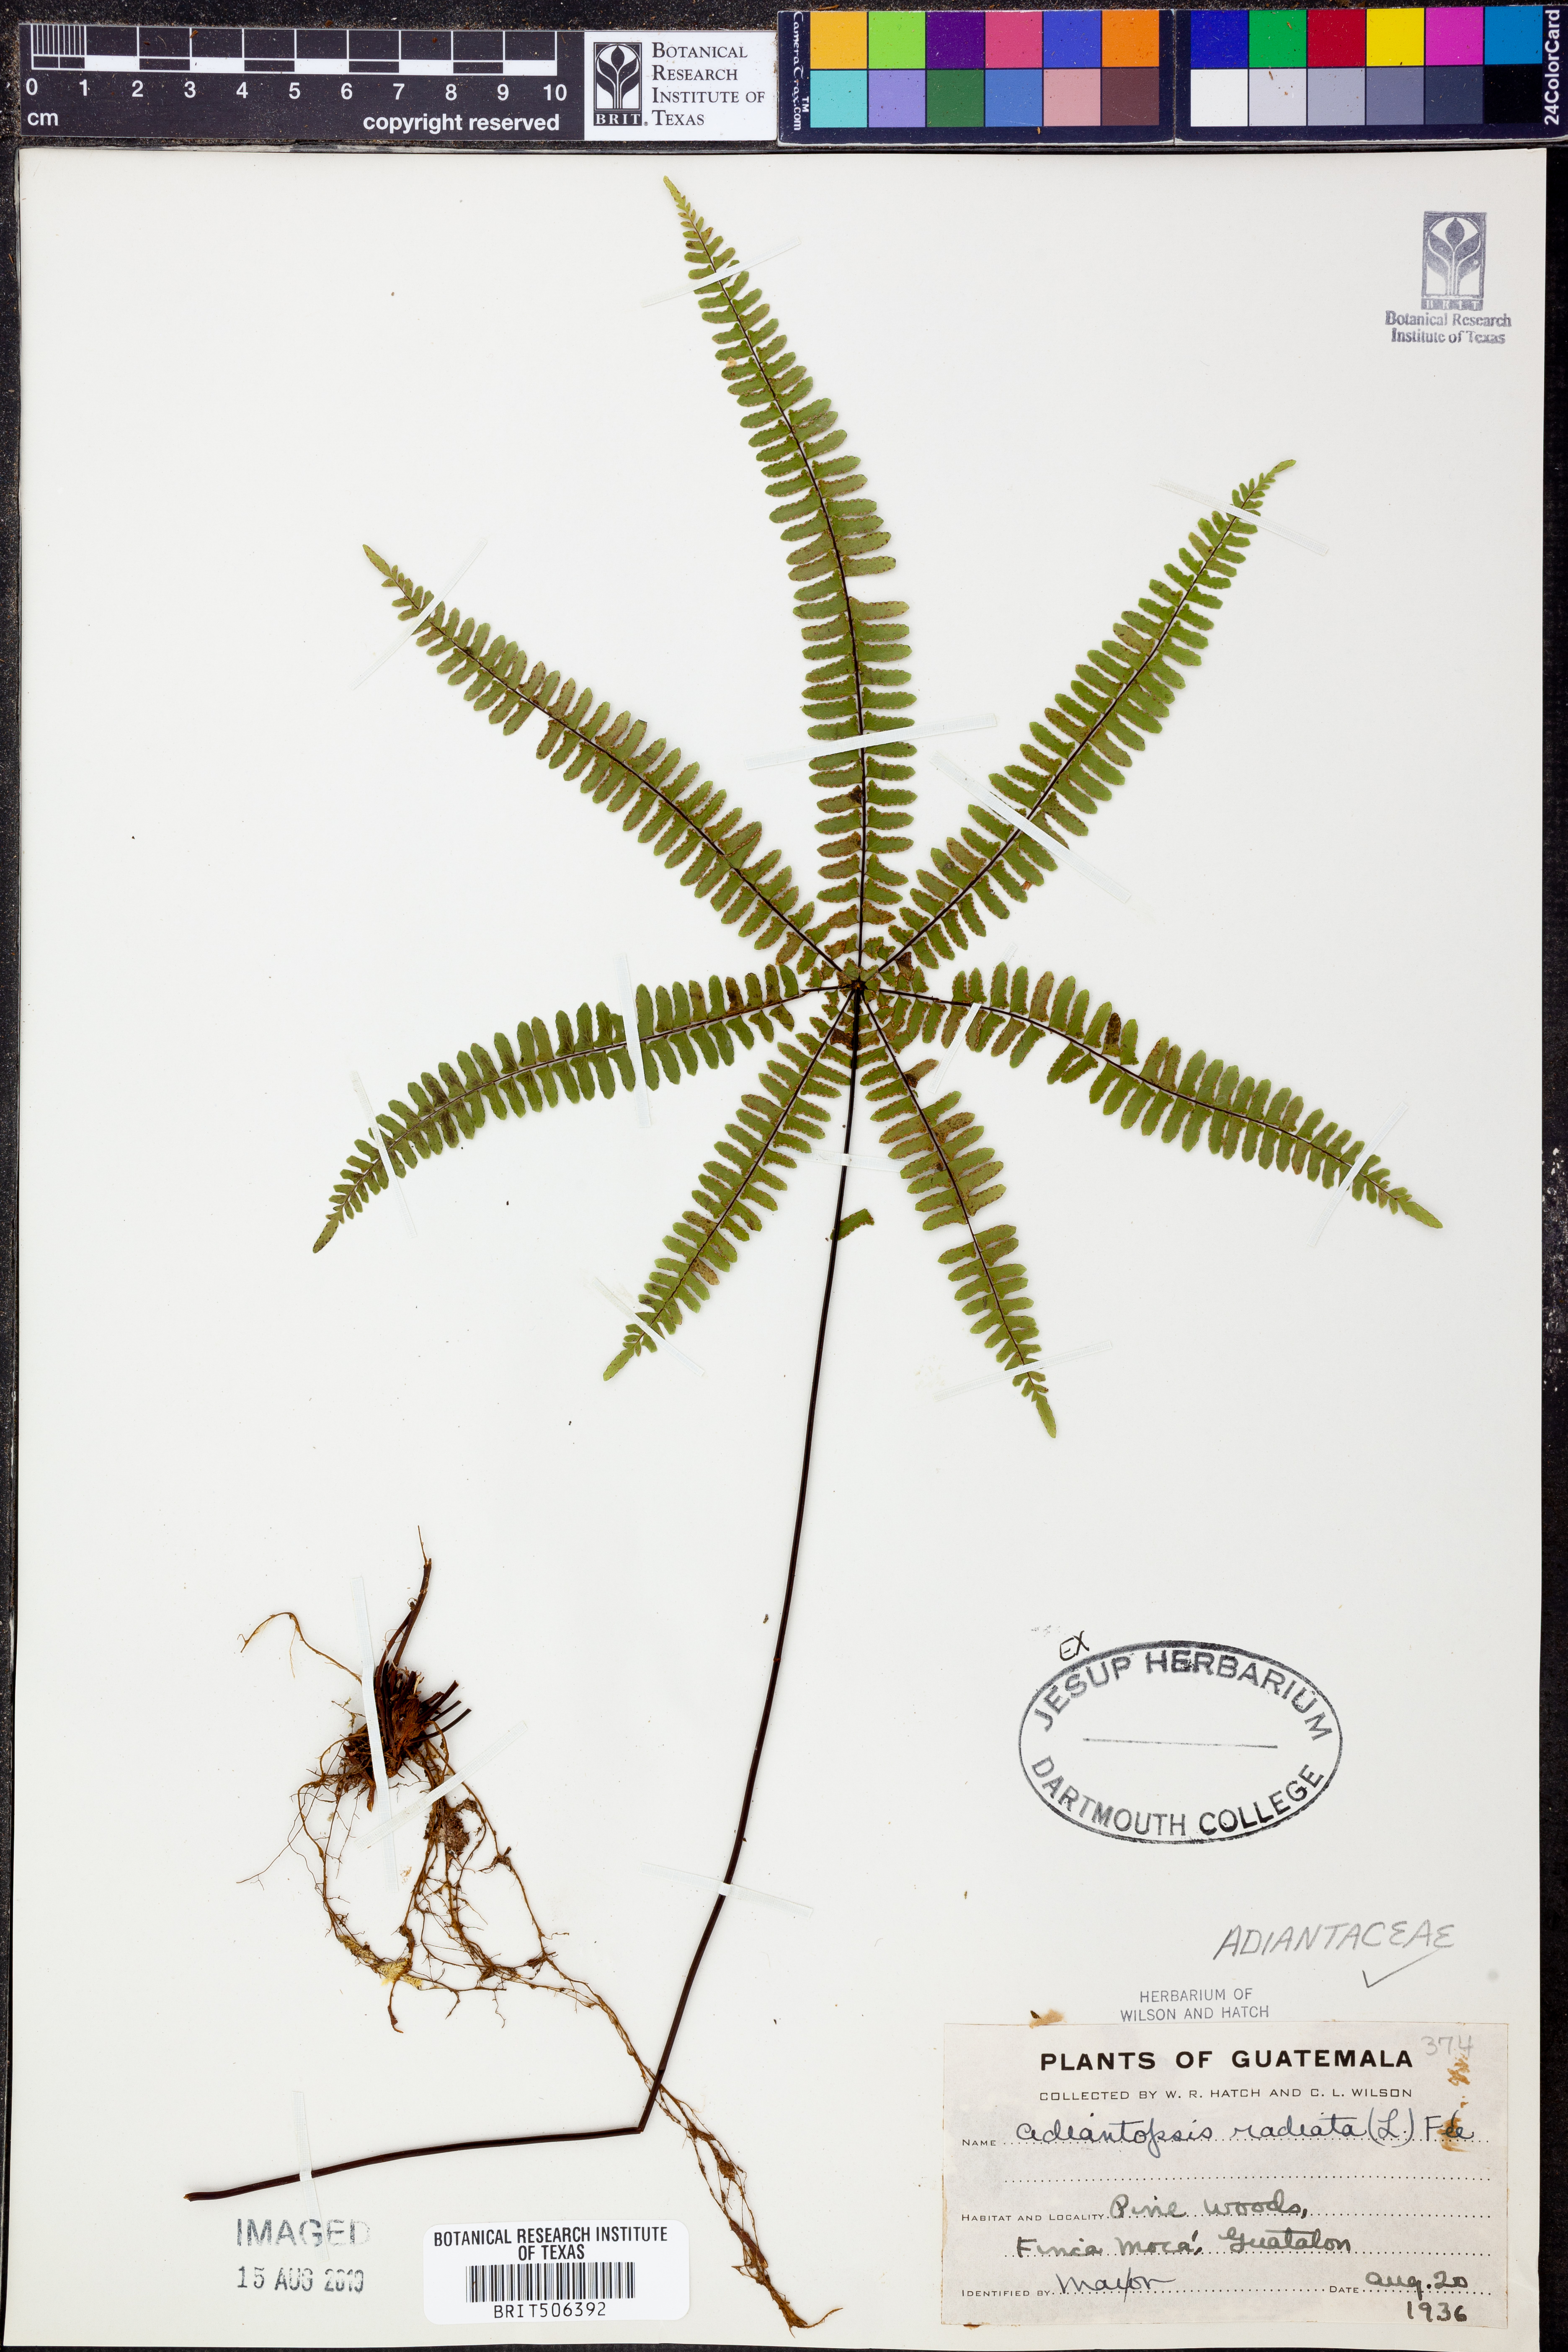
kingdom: Plantae
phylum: Tracheophyta
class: Polypodiopsida
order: Polypodiales
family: Pteridaceae
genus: Adiantopsis
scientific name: Adiantopsis radiata
